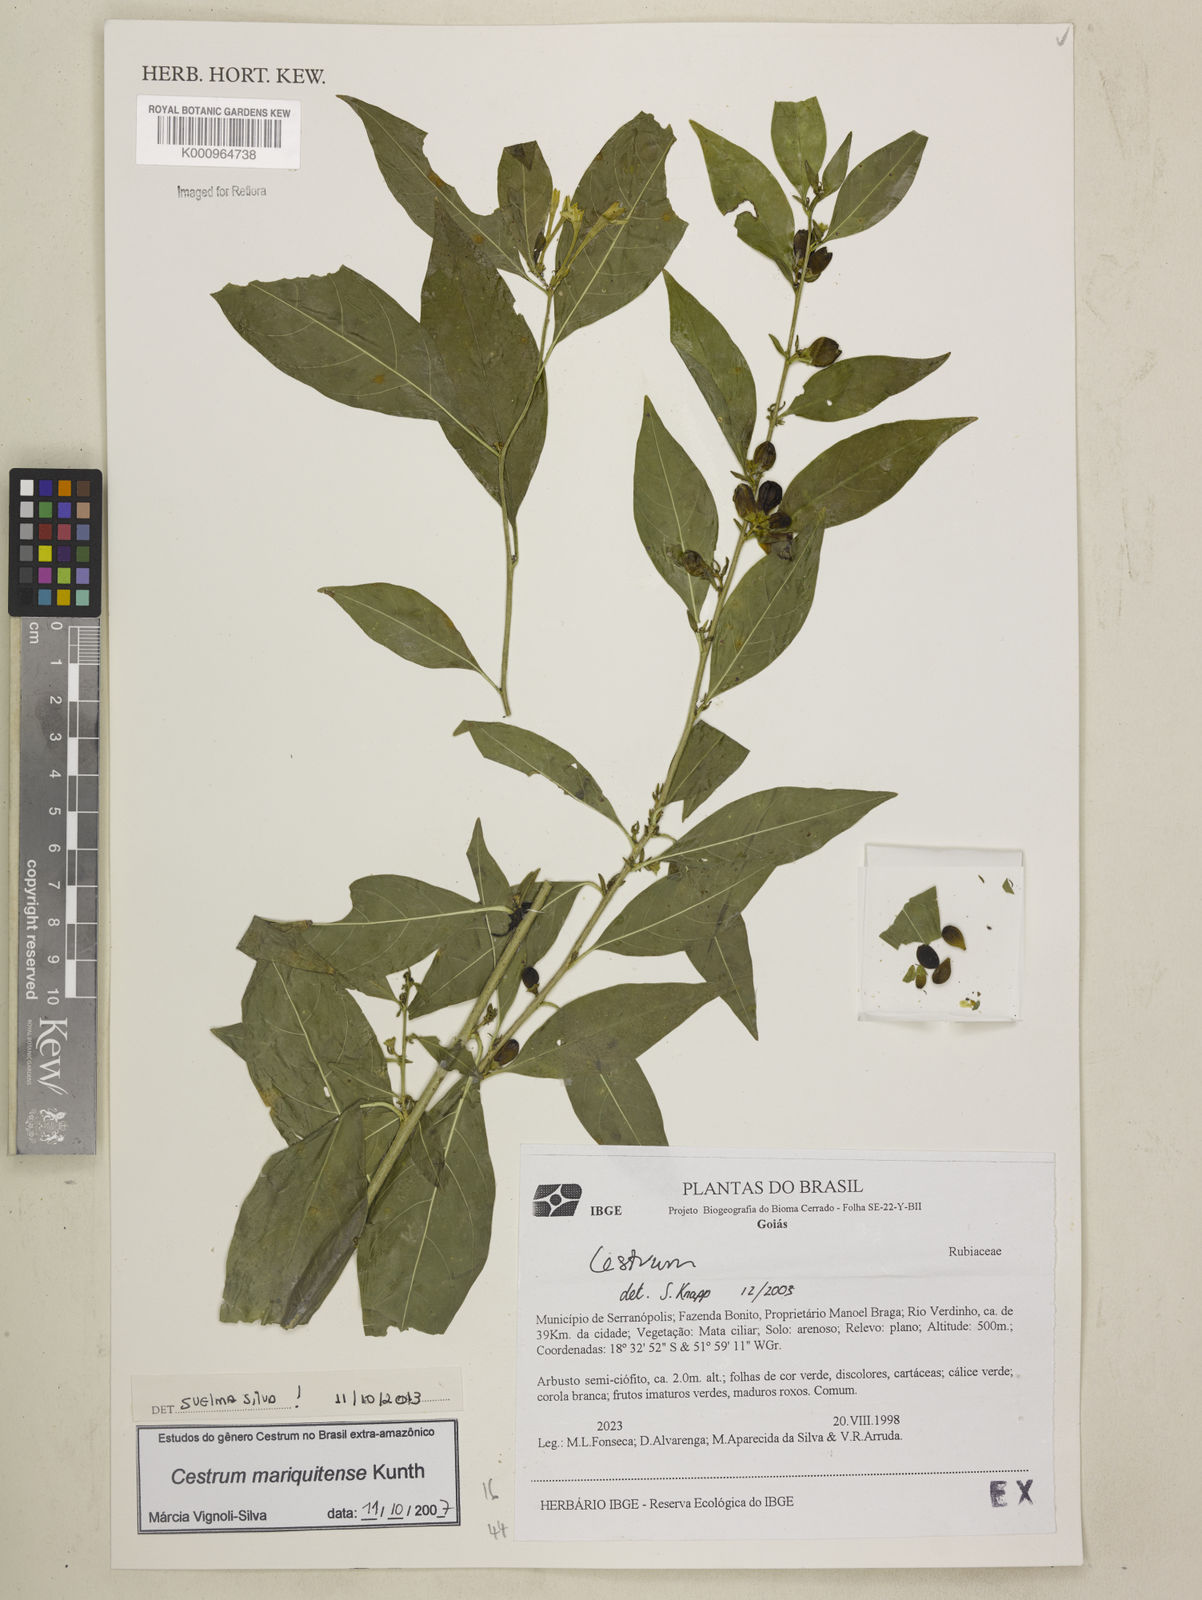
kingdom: Plantae
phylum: Tracheophyta
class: Magnoliopsida
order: Solanales
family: Solanaceae
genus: Cestrum
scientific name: Cestrum mariquitense
